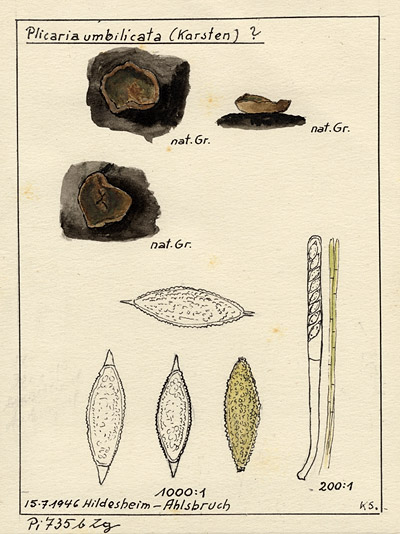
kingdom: Fungi
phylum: Ascomycota
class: Pezizomycetes
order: Pezizales
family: Pyronemataceae
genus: Plicaria
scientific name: Plicaria
